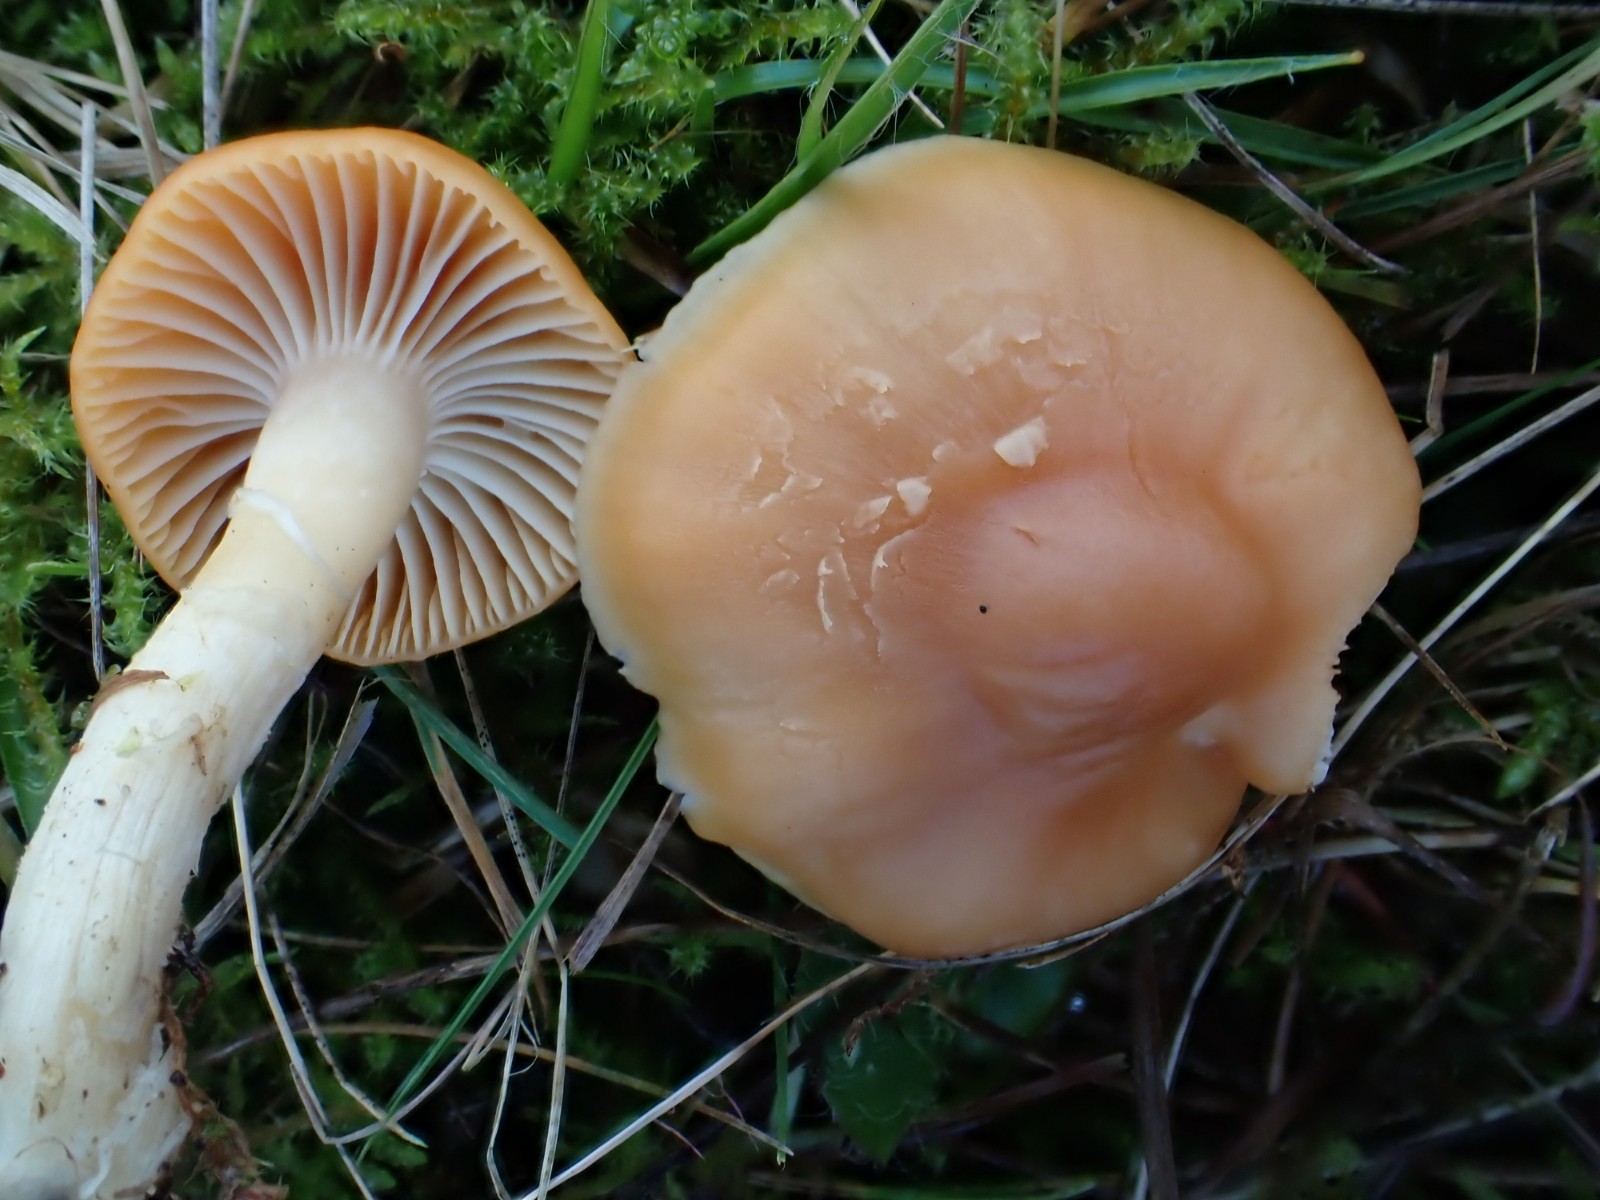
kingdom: Fungi
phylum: Basidiomycota
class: Agaricomycetes
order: Agaricales
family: Hygrophoraceae
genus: Cuphophyllus
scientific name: Cuphophyllus pratensis
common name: eng-vokshat
